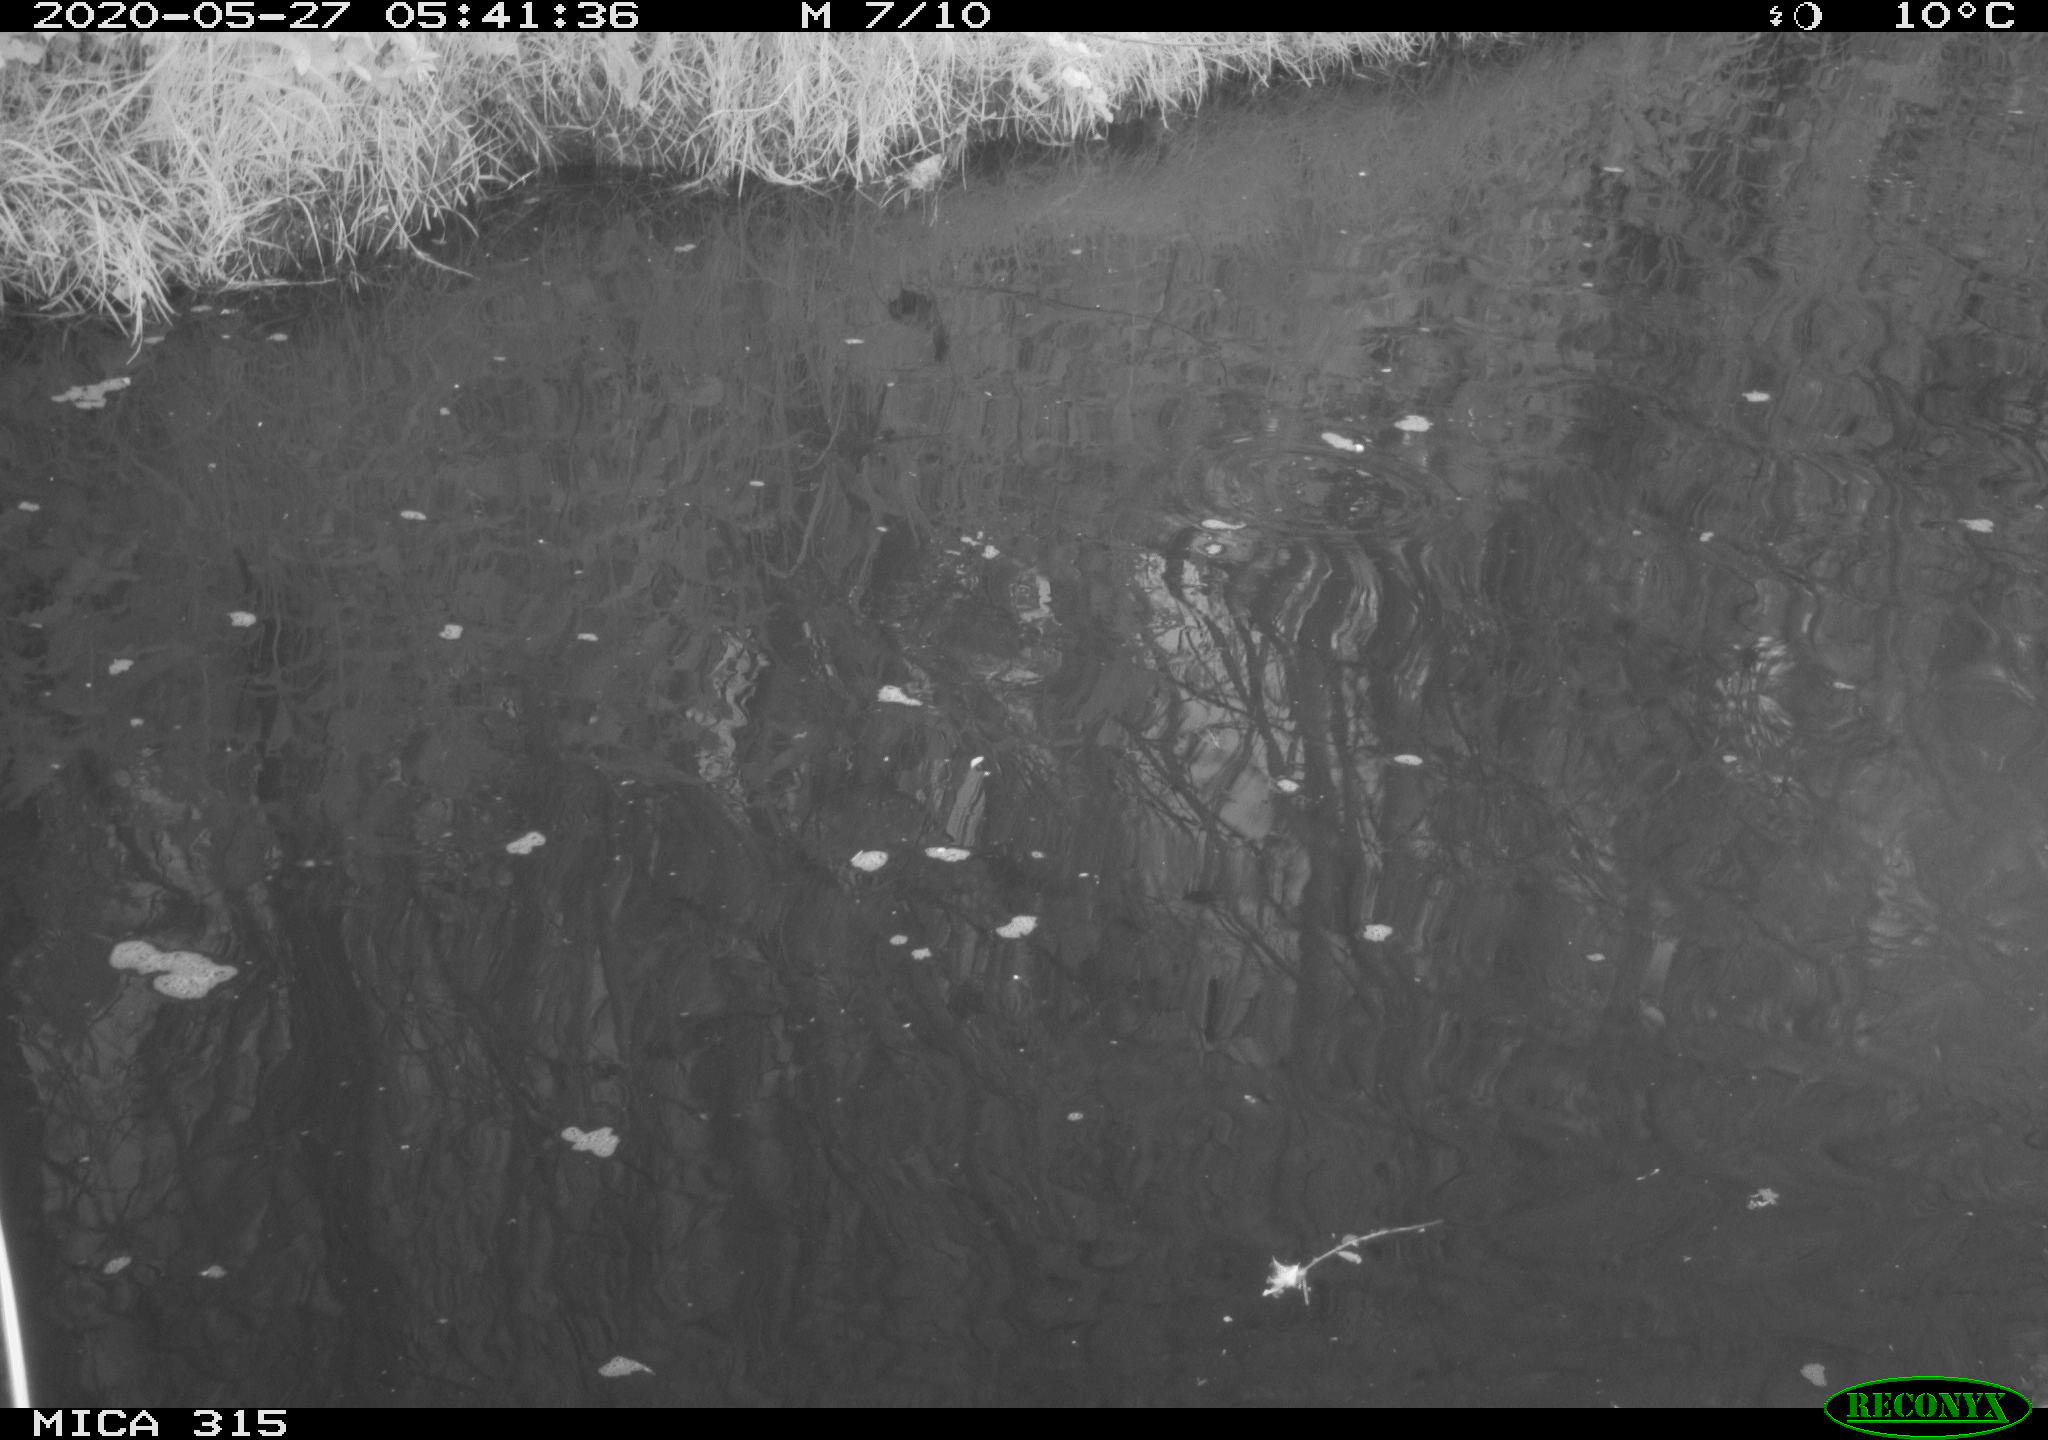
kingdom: Animalia
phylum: Chordata
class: Aves
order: Anseriformes
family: Anatidae
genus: Anas
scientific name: Anas platyrhynchos
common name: Mallard
